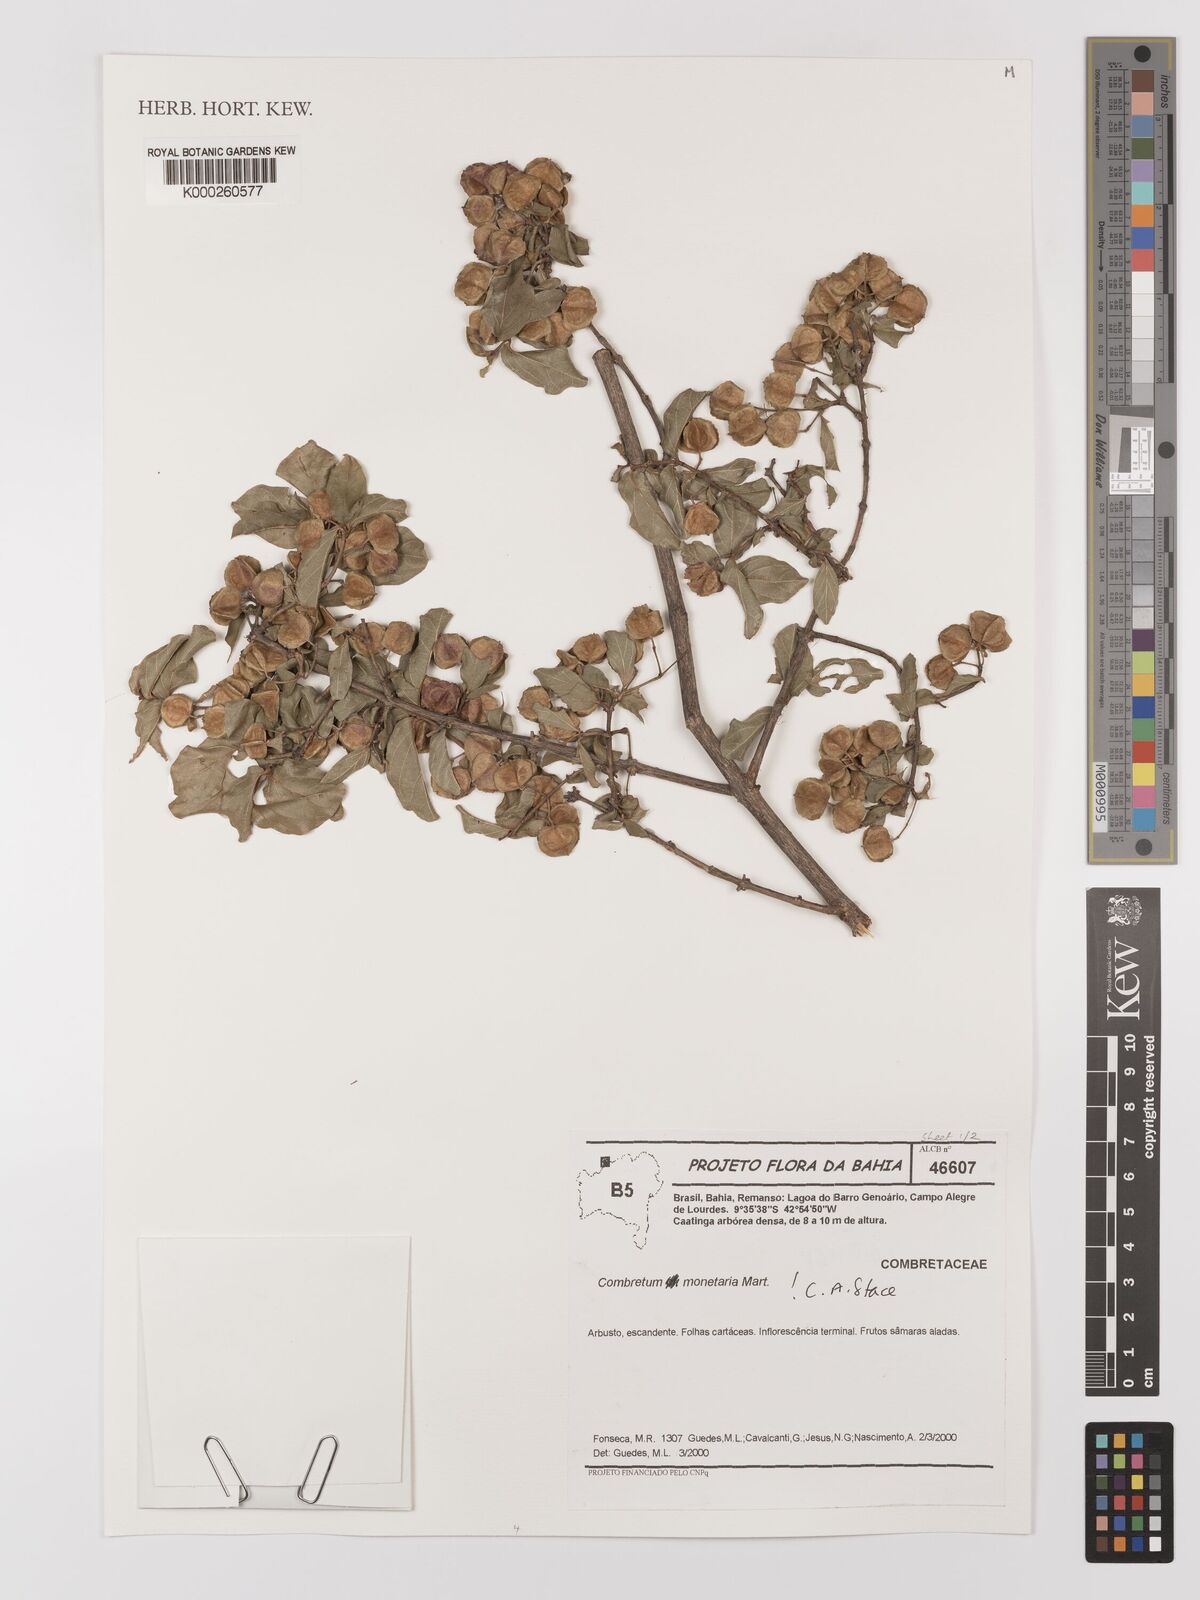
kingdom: Plantae
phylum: Tracheophyta
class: Magnoliopsida
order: Myrtales
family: Combretaceae
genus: Combretum
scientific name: Combretum monetaria
